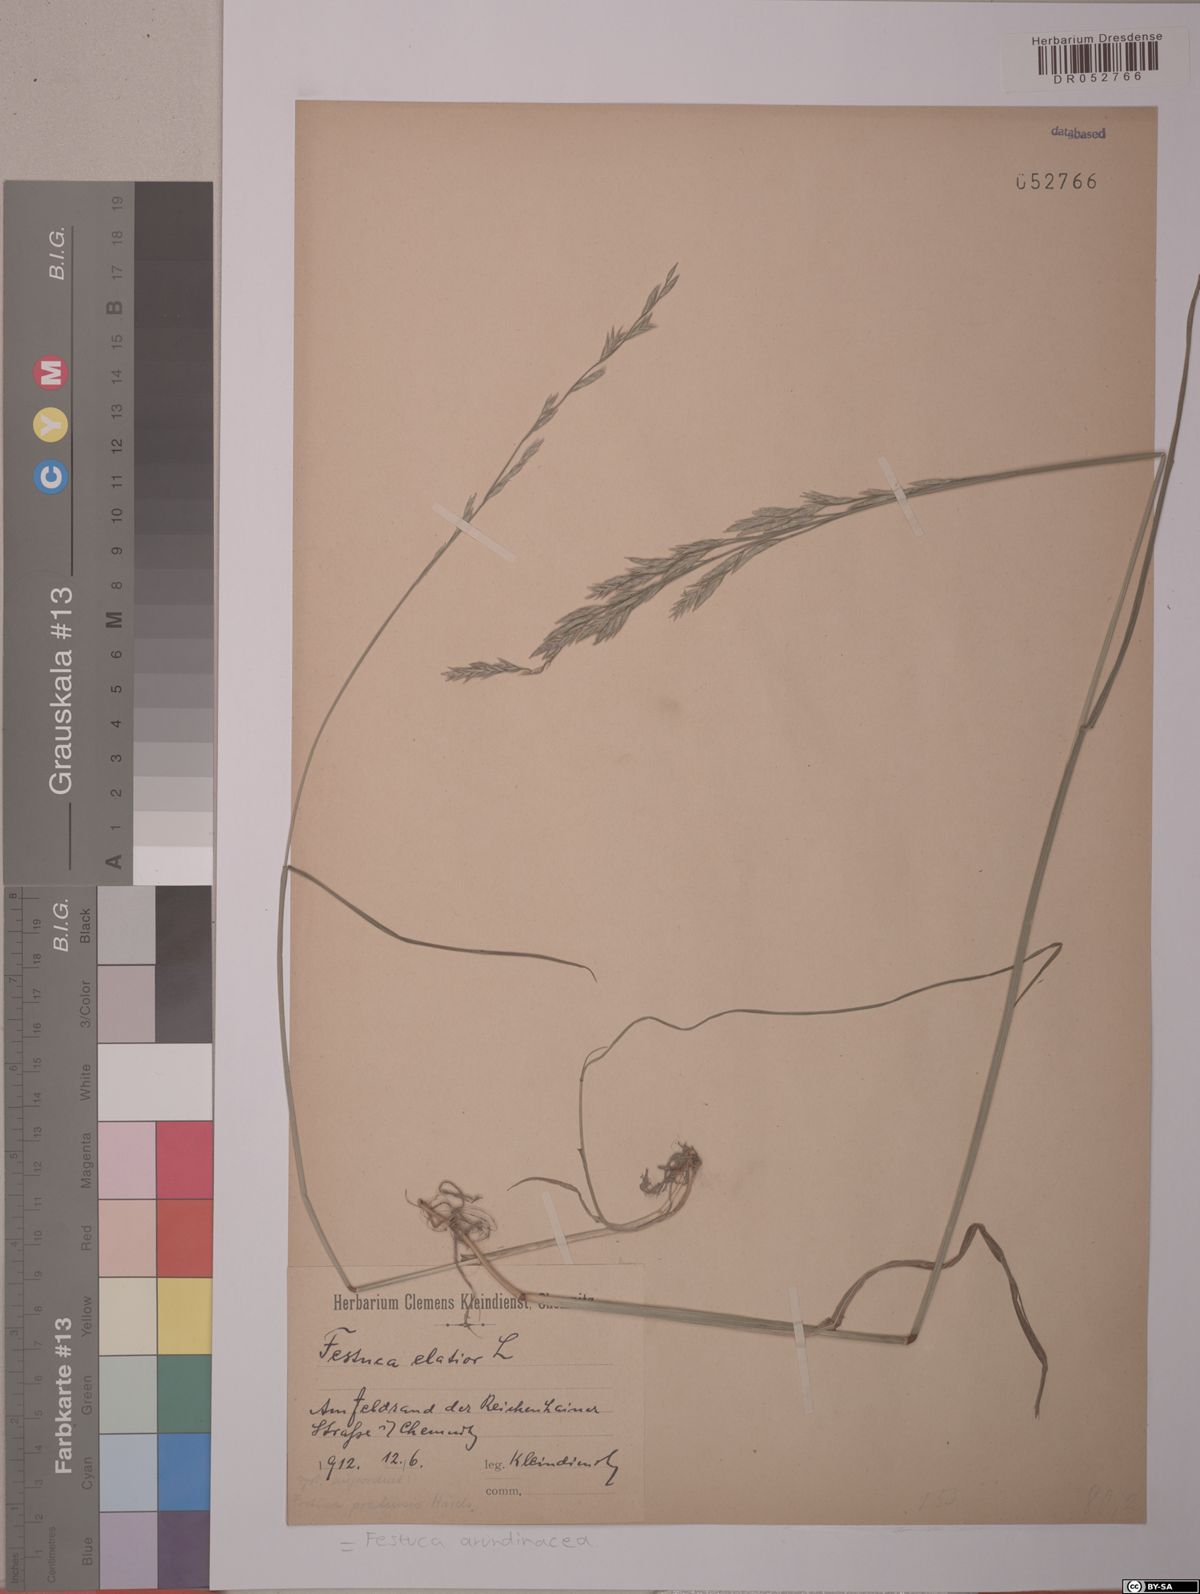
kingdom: Plantae
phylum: Tracheophyta
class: Liliopsida
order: Poales
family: Poaceae
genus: Lolium
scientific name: Lolium arundinaceum
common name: Reed fescue
